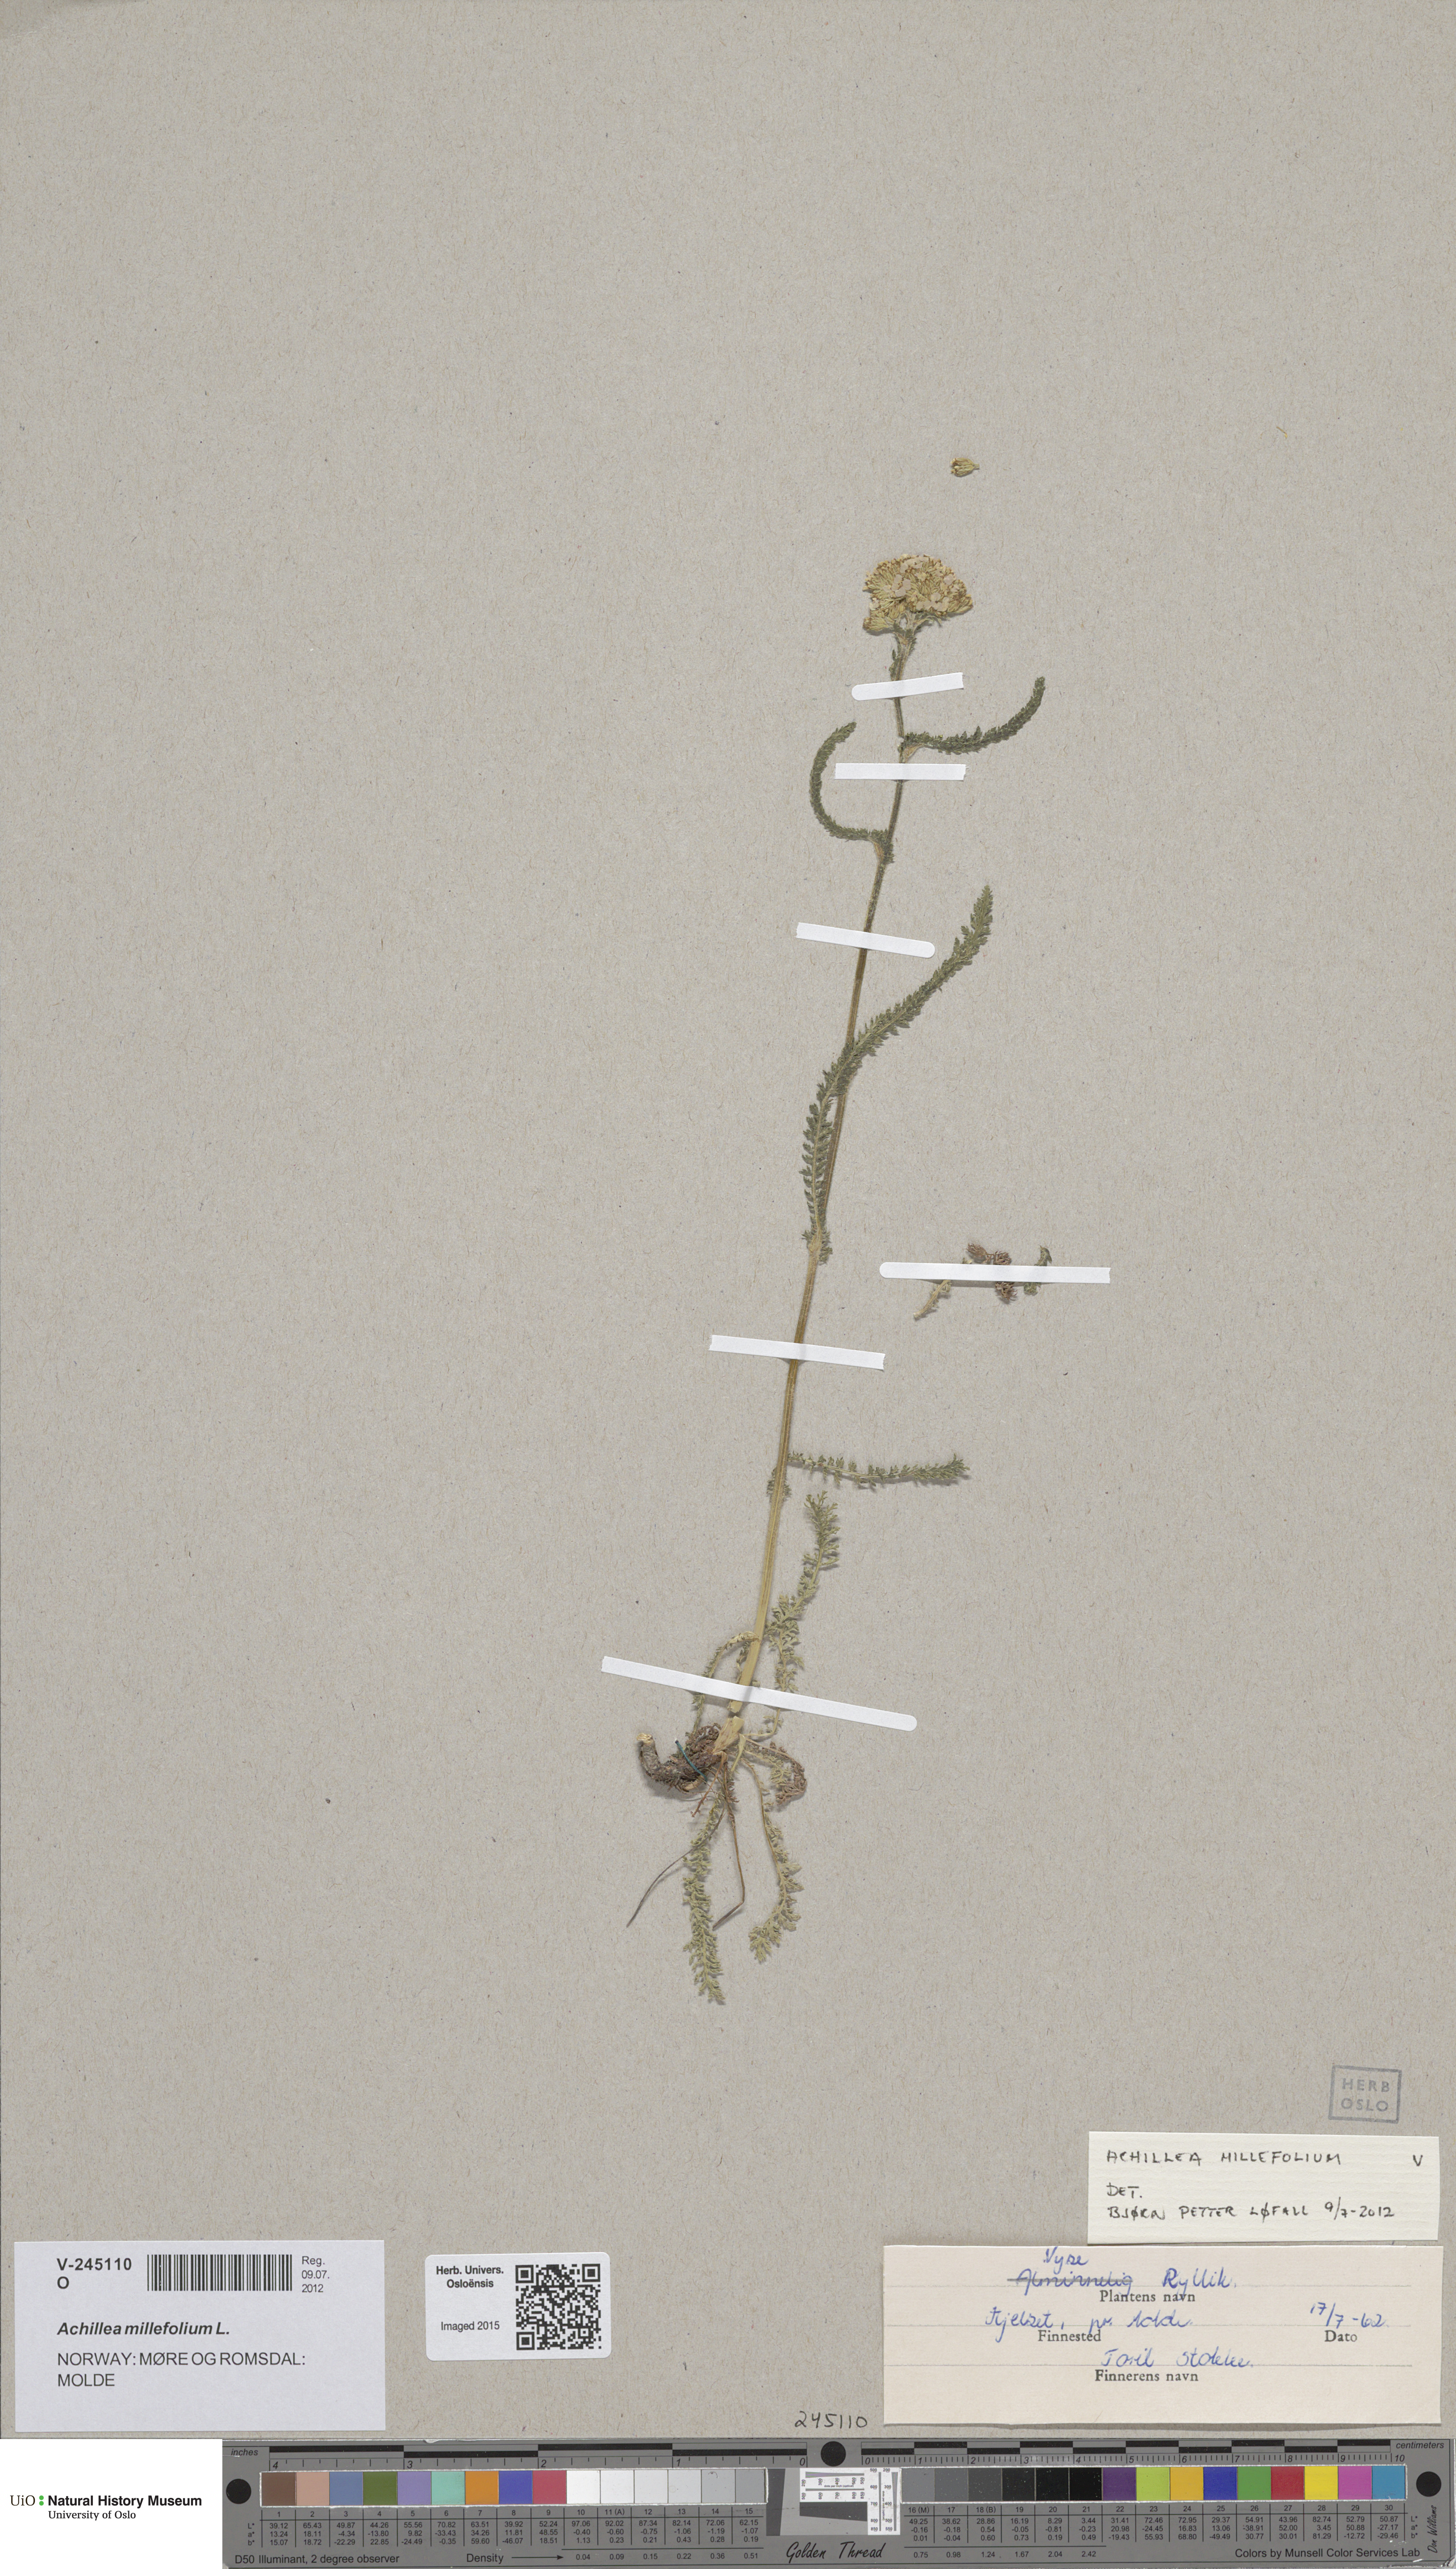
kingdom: Plantae
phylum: Tracheophyta
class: Magnoliopsida
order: Asterales
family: Asteraceae
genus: Achillea
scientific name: Achillea millefolium
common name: Yarrow
